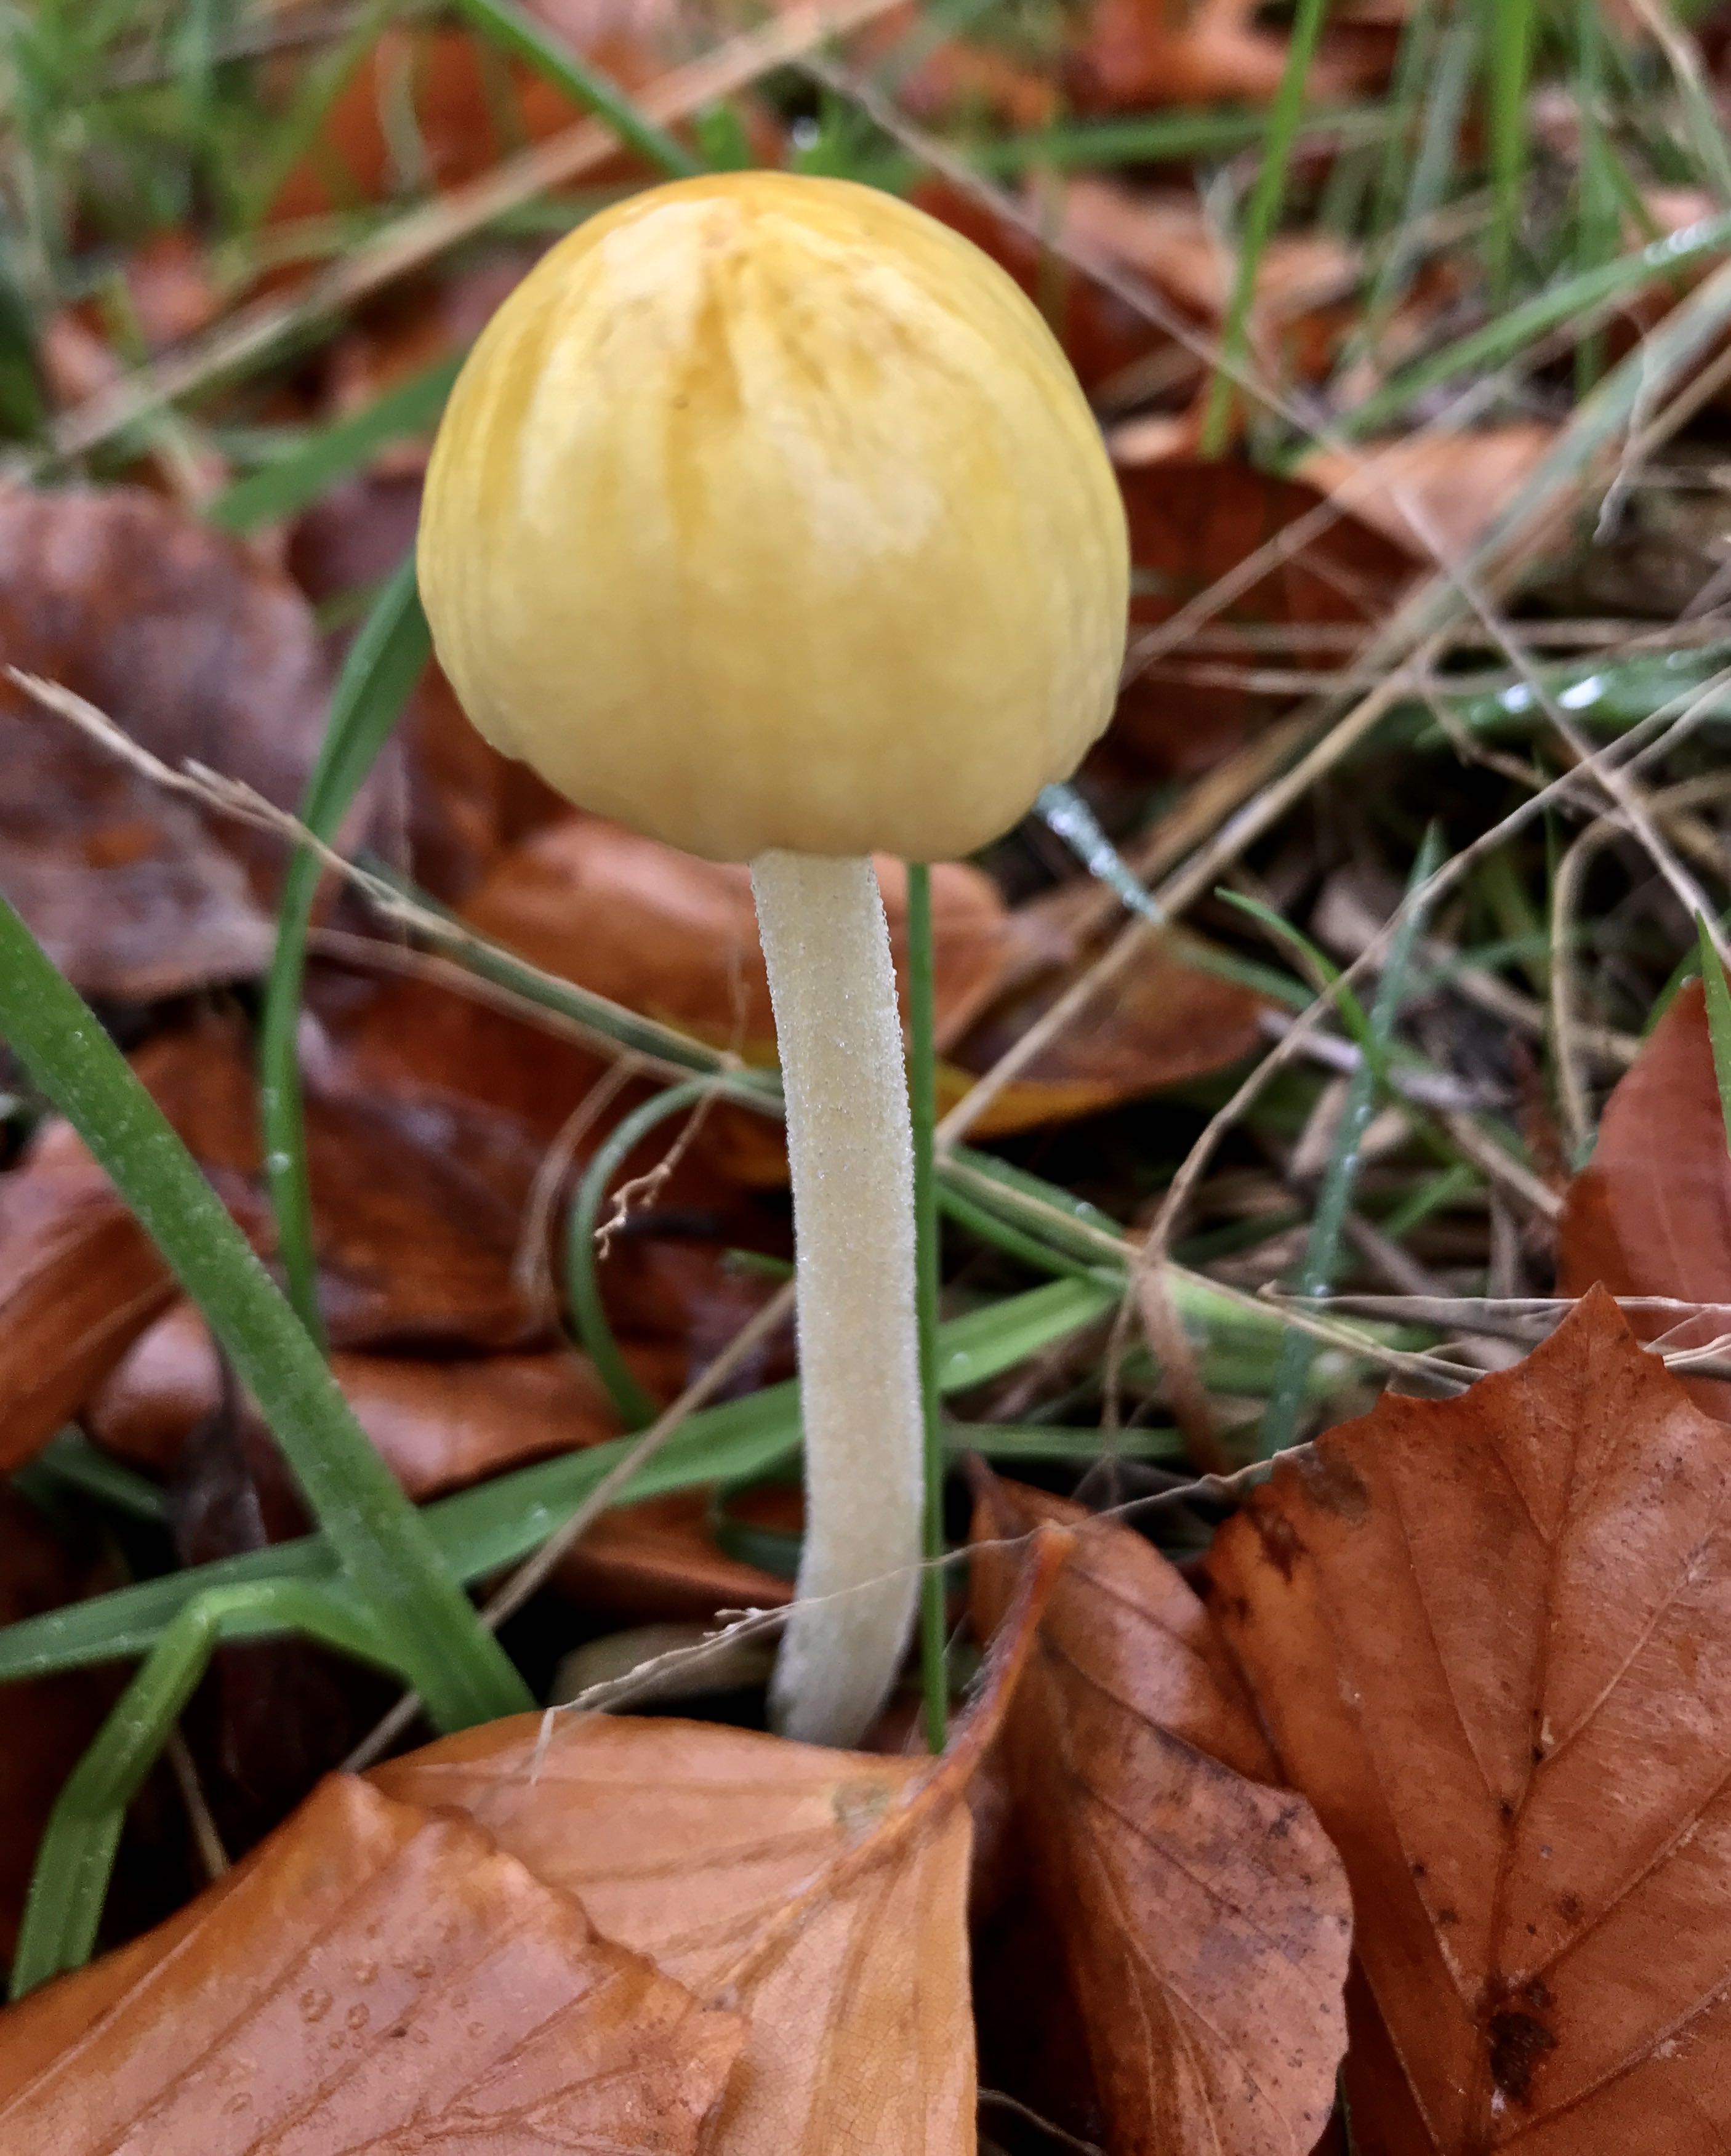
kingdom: Fungi
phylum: Basidiomycota
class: Agaricomycetes
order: Agaricales
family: Bolbitiaceae
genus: Bolbitius
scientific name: Bolbitius titubans
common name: almindelig gulhat
